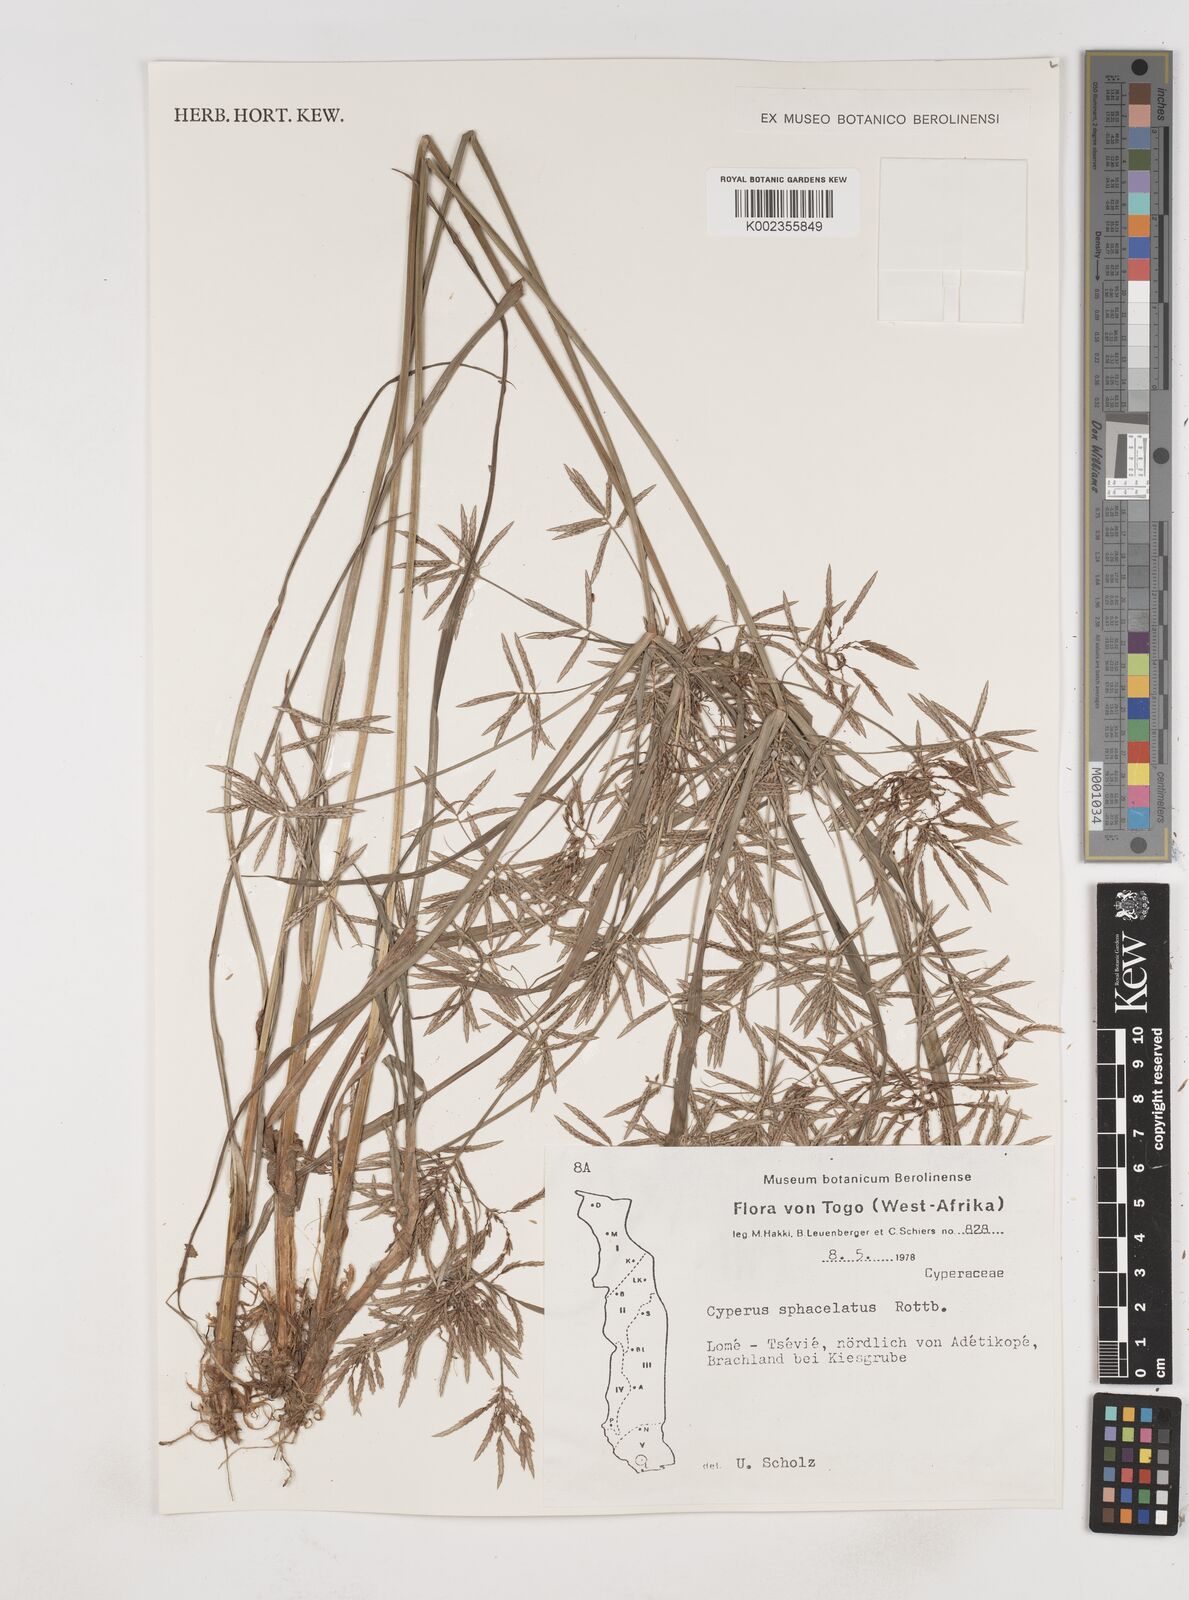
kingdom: Plantae
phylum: Tracheophyta
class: Liliopsida
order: Poales
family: Cyperaceae
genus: Cyperus
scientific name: Cyperus sphacelatus
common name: Roadside flatsedge
